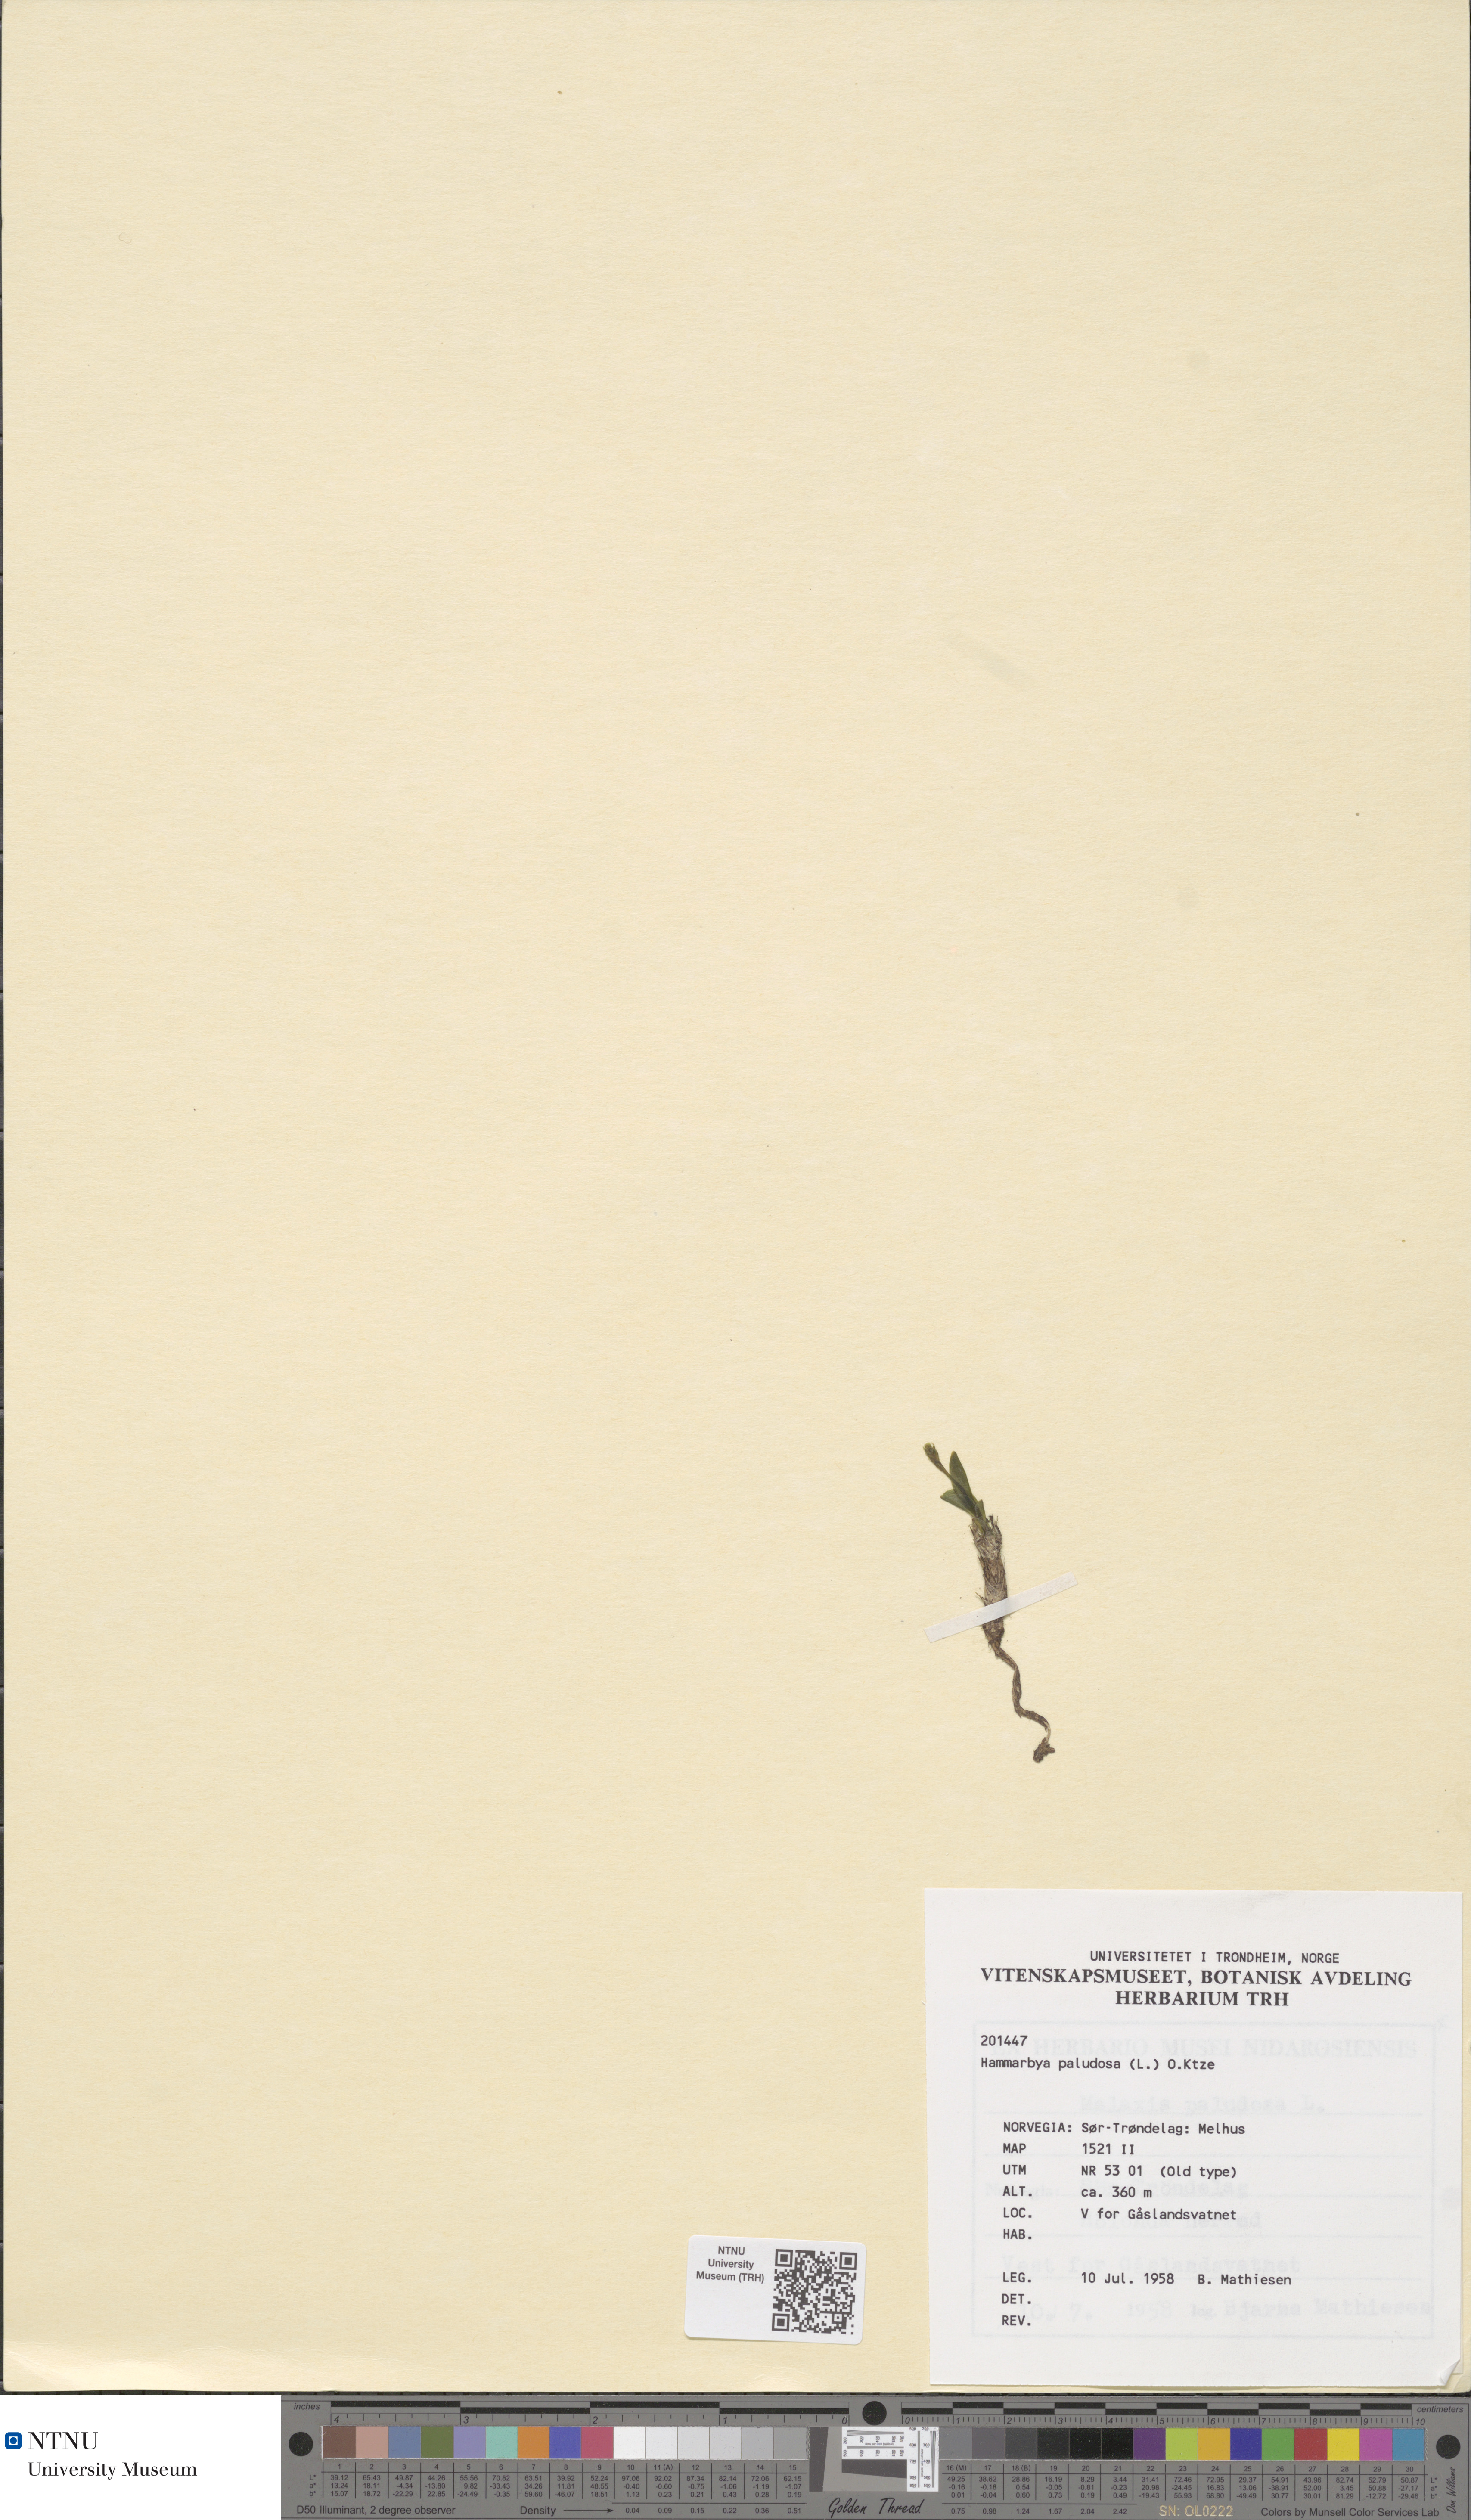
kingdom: Plantae
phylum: Tracheophyta
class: Liliopsida
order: Asparagales
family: Orchidaceae
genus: Hammarbya
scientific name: Hammarbya paludosa
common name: Bog orchid
